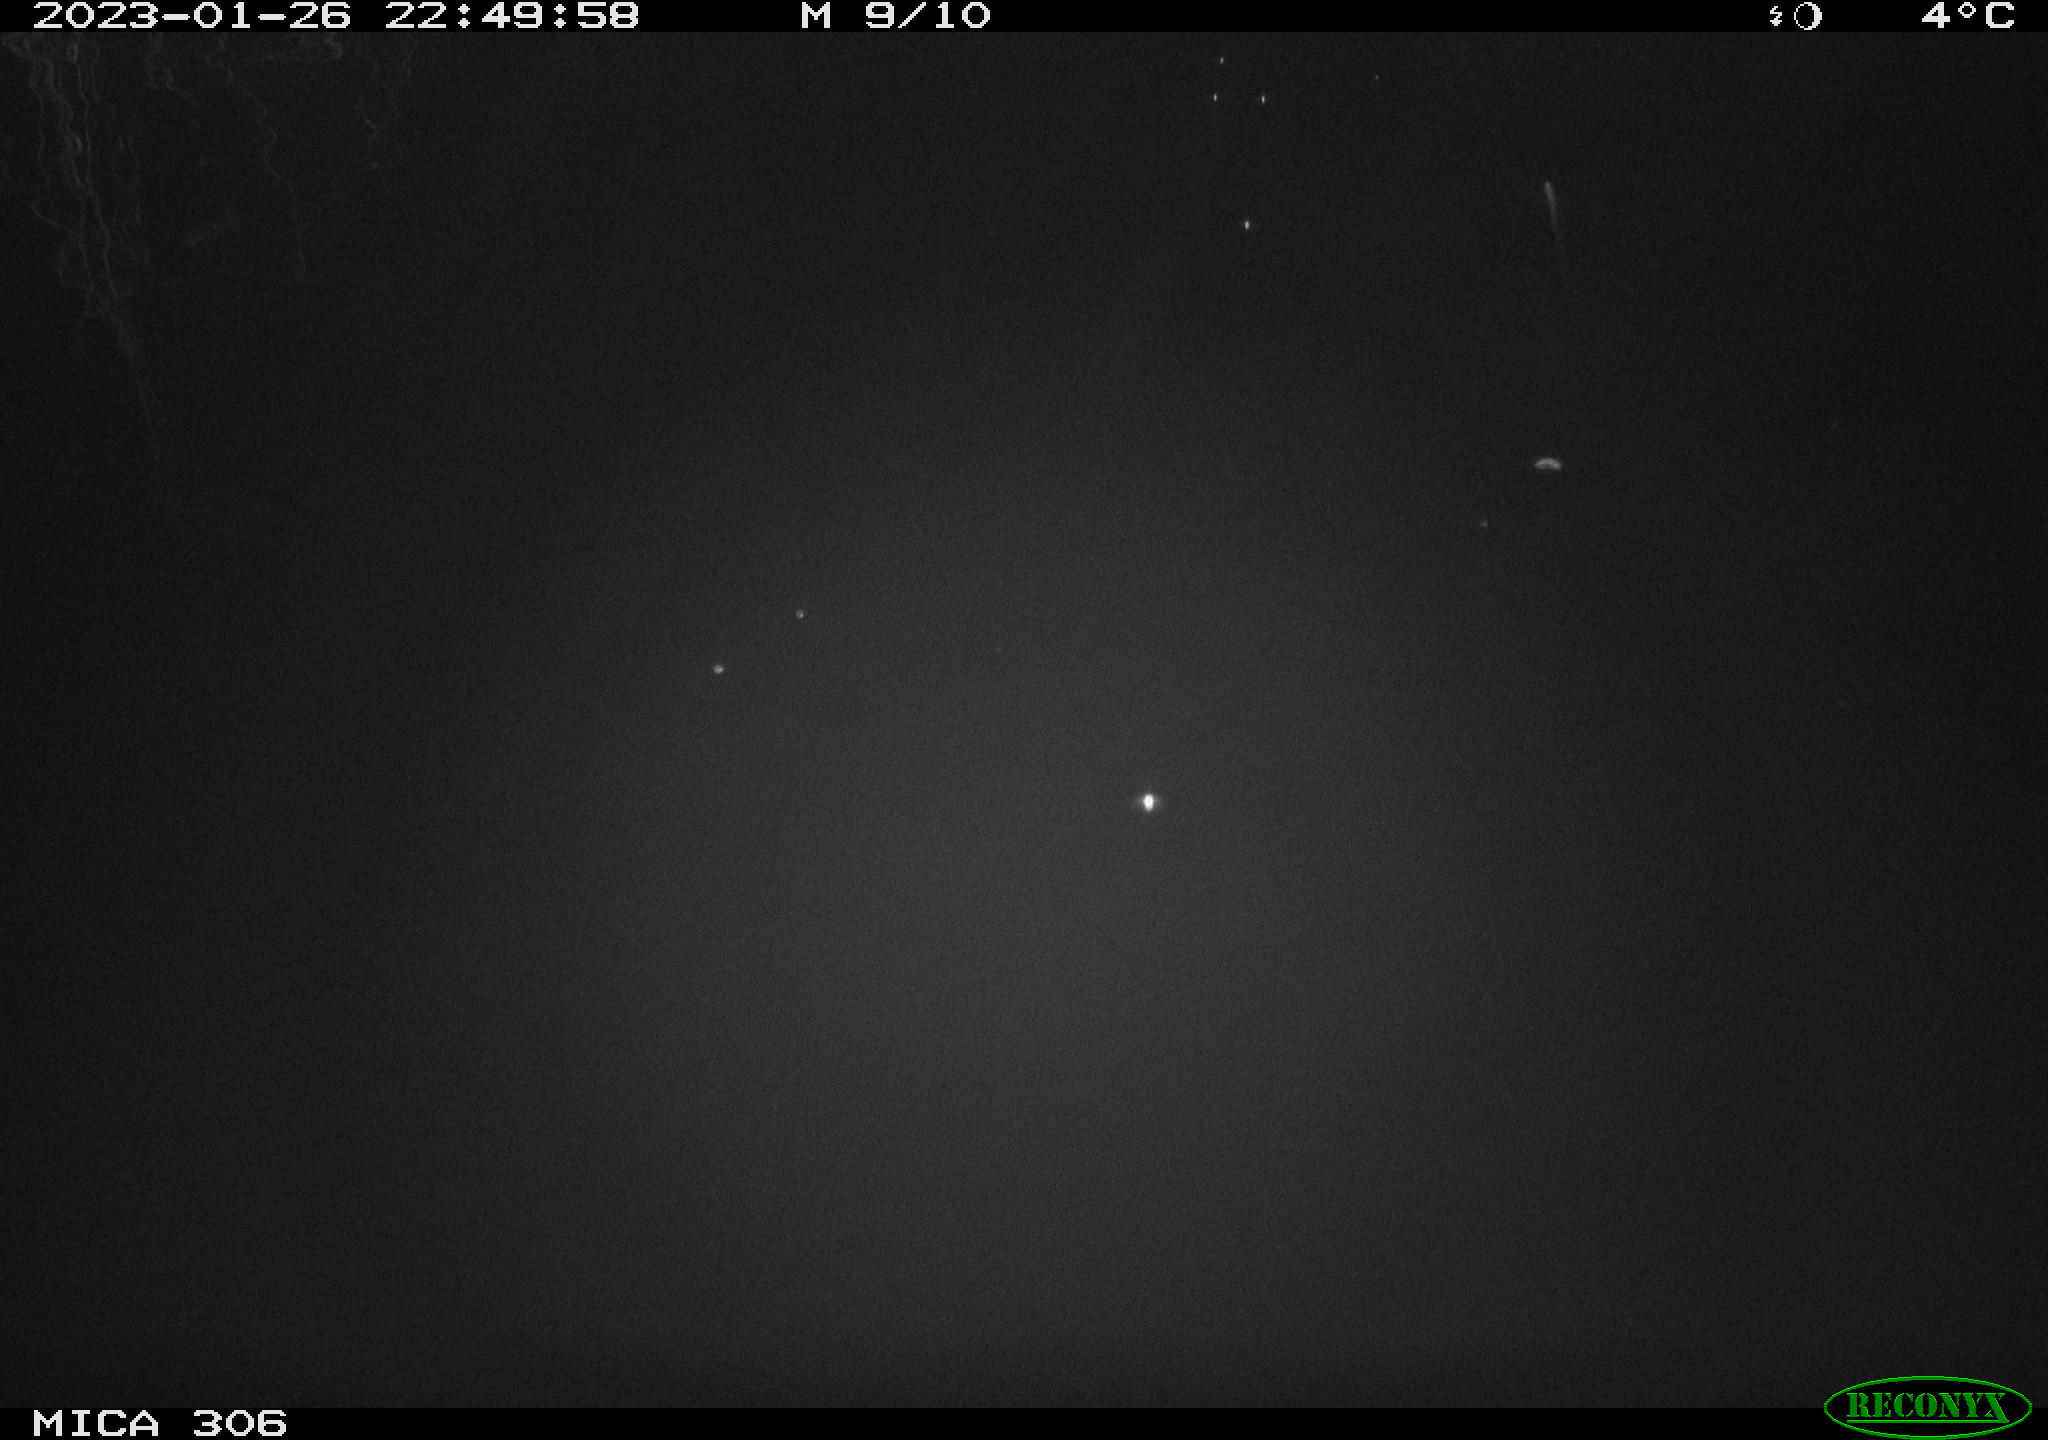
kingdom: Animalia
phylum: Chordata
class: Mammalia
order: Rodentia
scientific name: Rodentia
